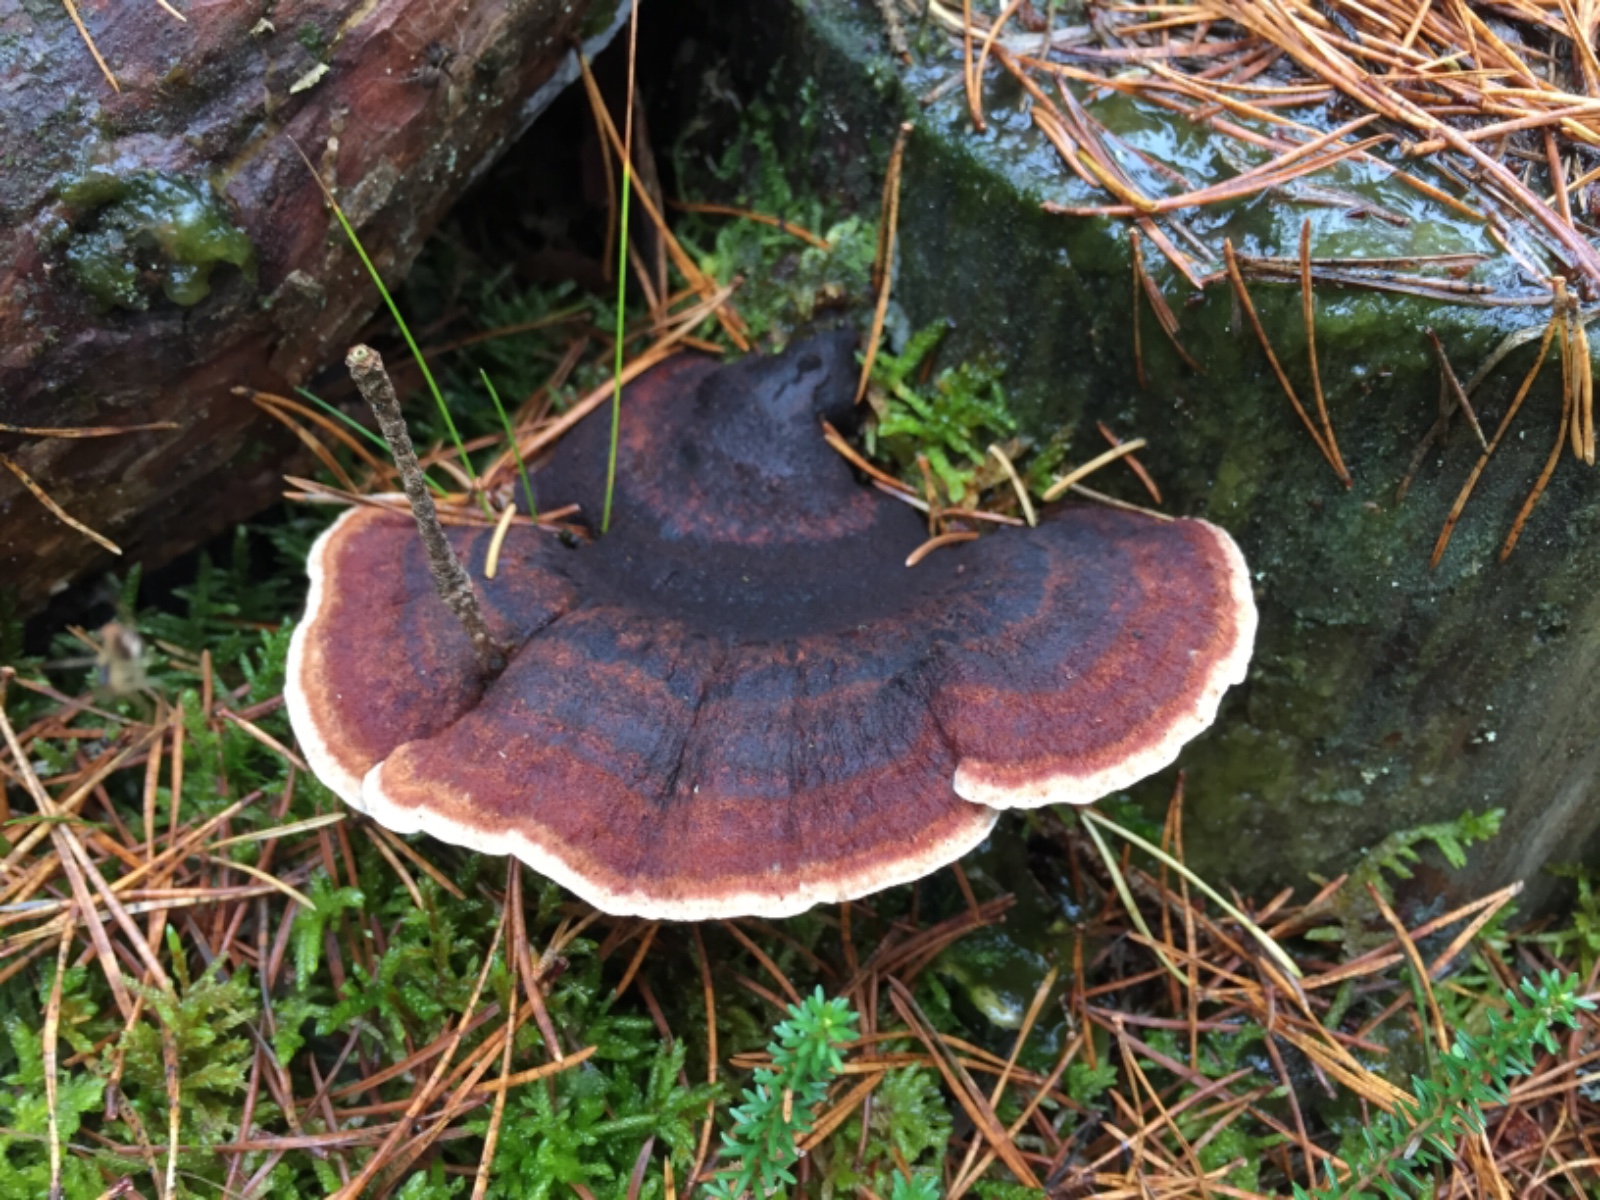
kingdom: Fungi
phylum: Basidiomycota
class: Agaricomycetes
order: Polyporales
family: Ischnodermataceae
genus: Ischnoderma
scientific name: Ischnoderma benzoinum
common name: gran-tjæreporesvamp
